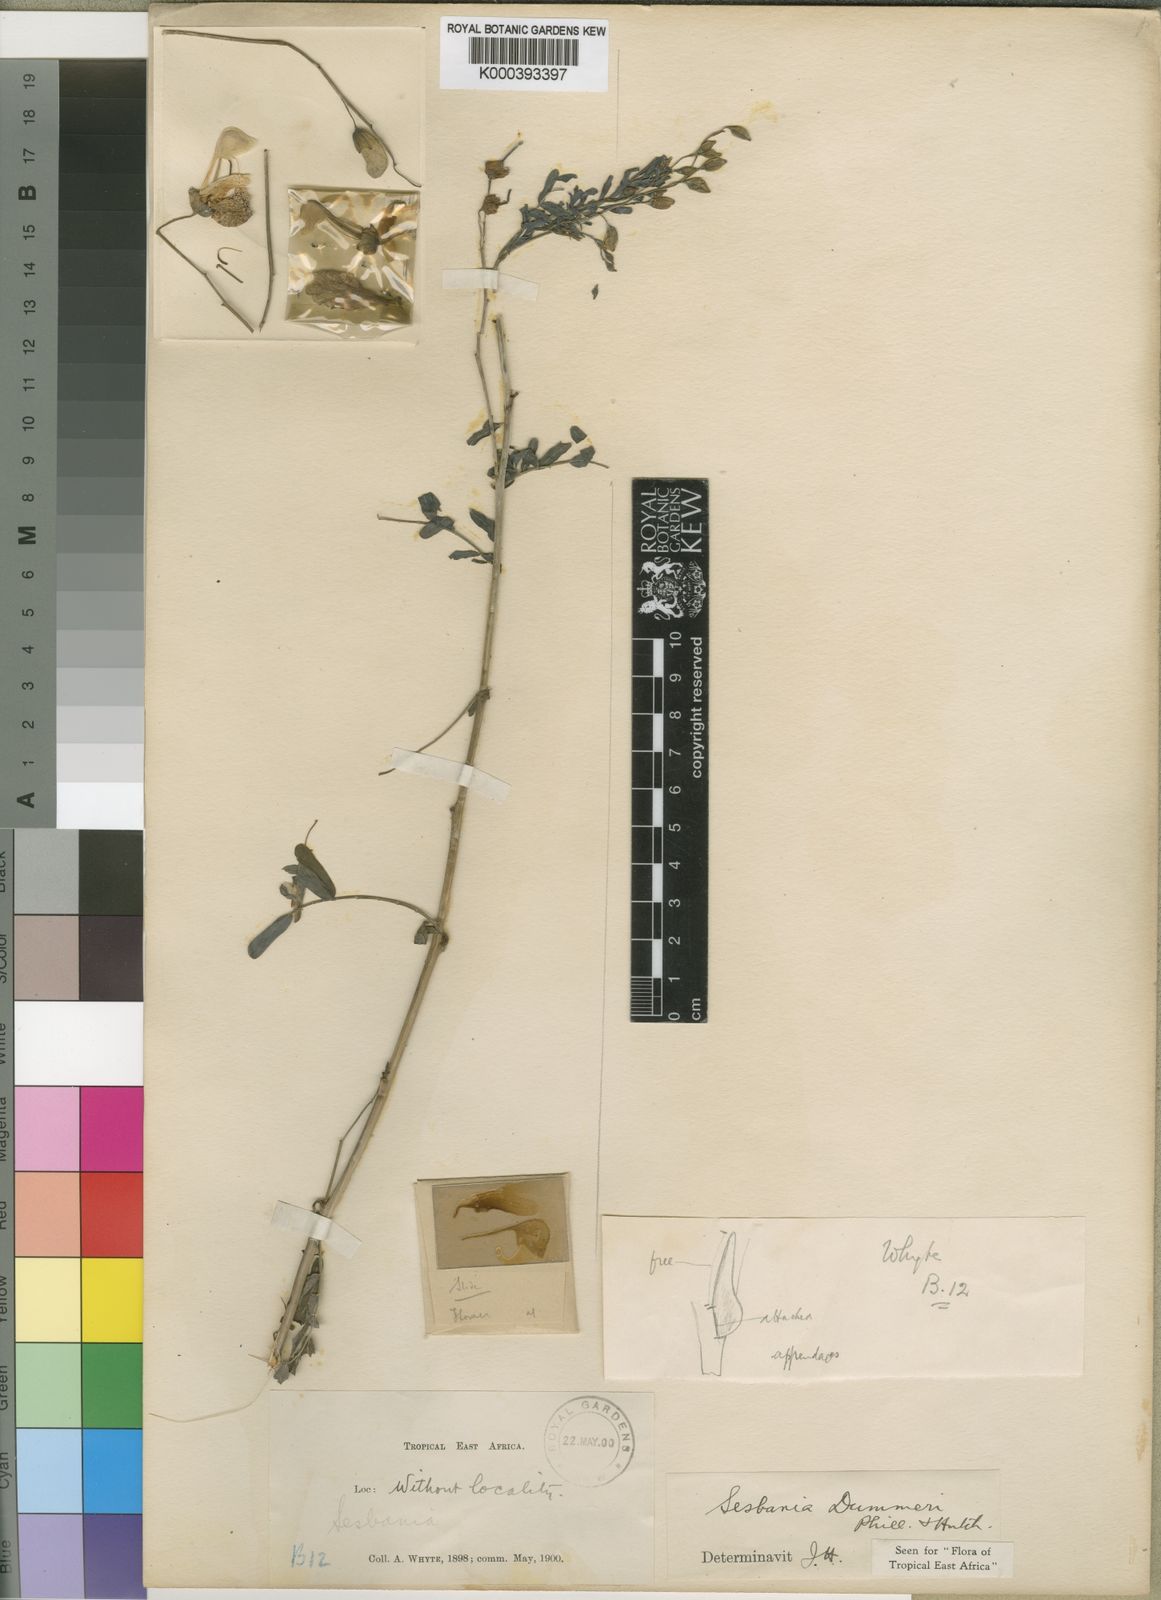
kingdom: Plantae
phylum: Tracheophyta
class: Magnoliopsida
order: Fabales
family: Fabaceae
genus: Sesbania
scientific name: Sesbania dummeri
